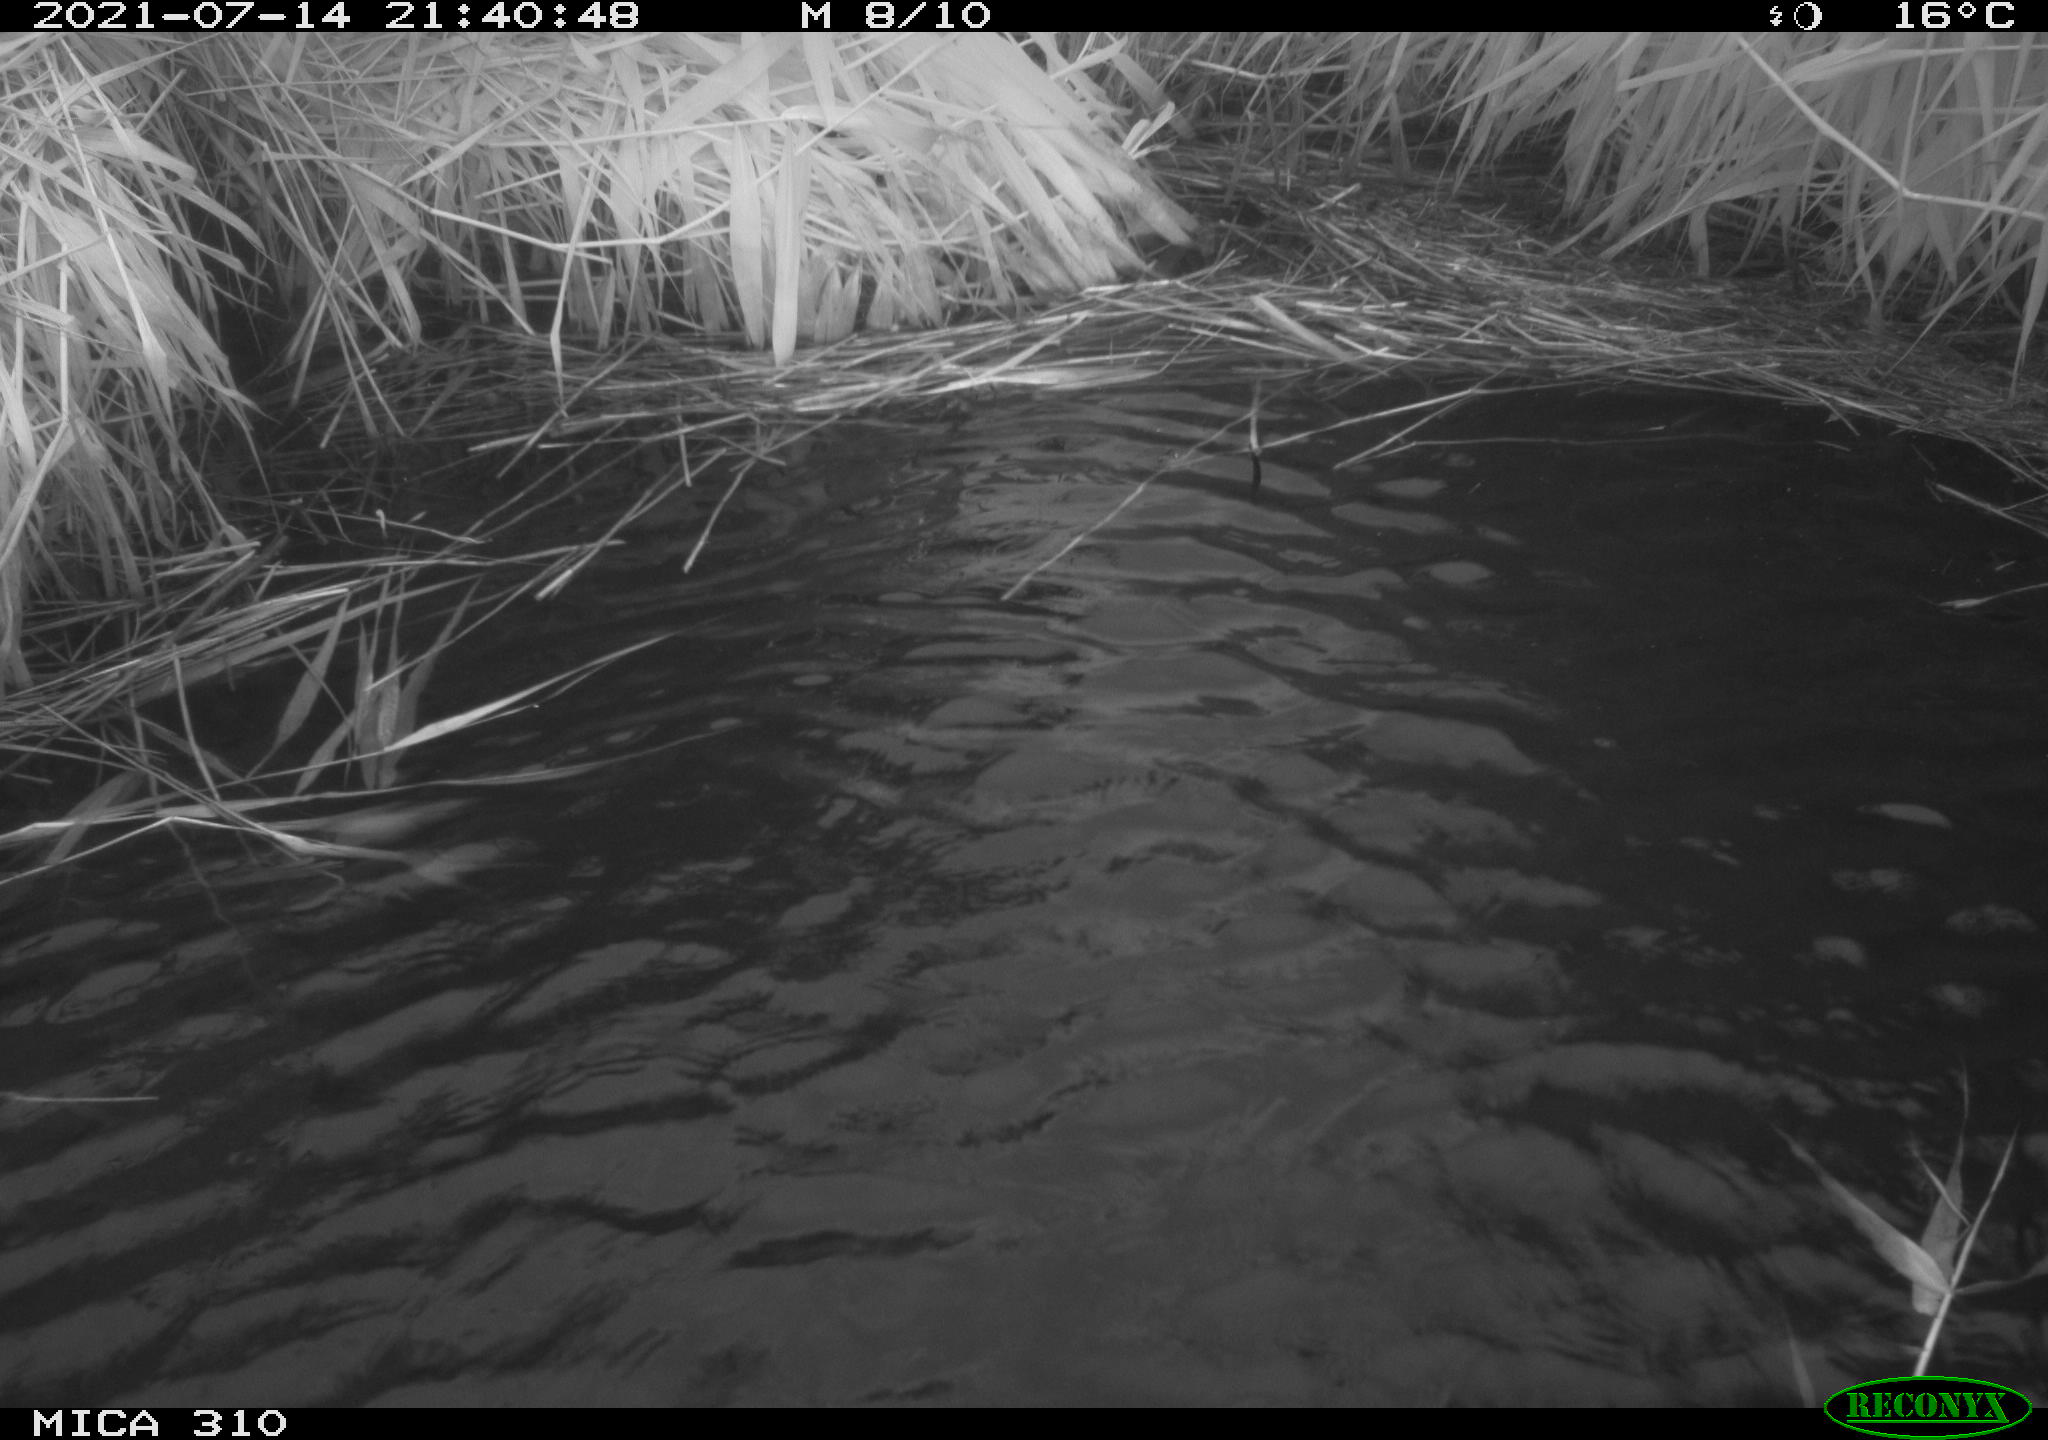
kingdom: Animalia
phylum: Chordata
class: Aves
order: Anseriformes
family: Anatidae
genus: Anas
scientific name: Anas platyrhynchos
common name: Mallard
